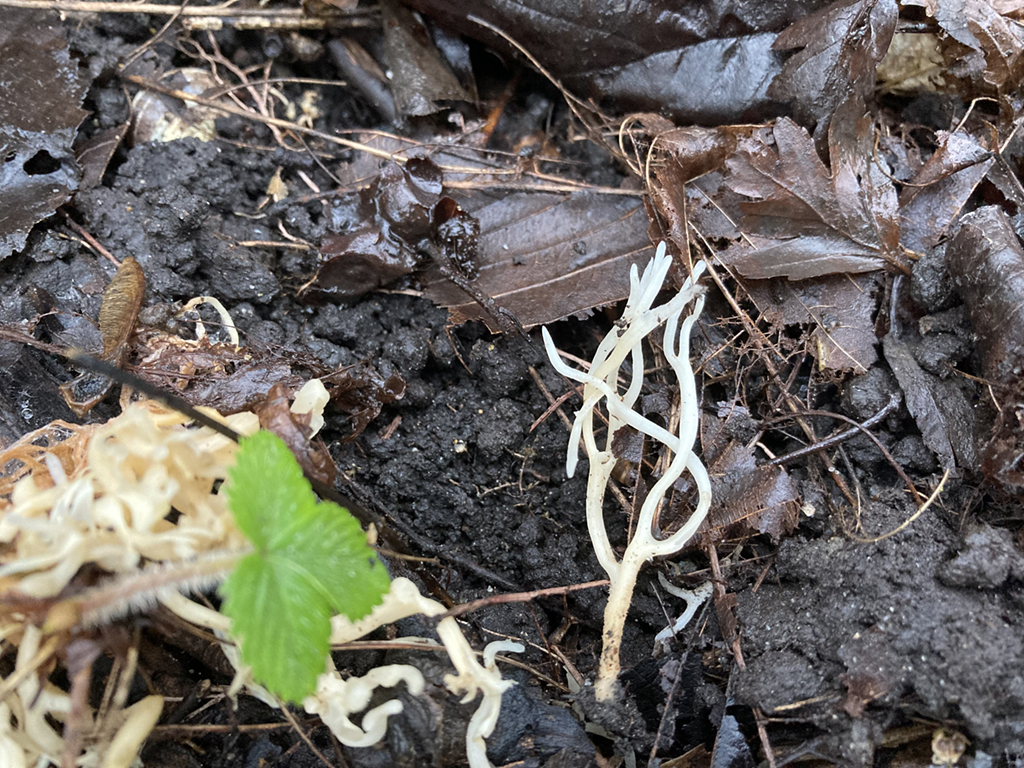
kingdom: Fungi
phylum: Basidiomycota
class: Agaricomycetes
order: Agaricales
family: Clavariaceae
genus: Ramariopsis
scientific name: Ramariopsis kunzei
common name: mangegrenet køllesvamp
